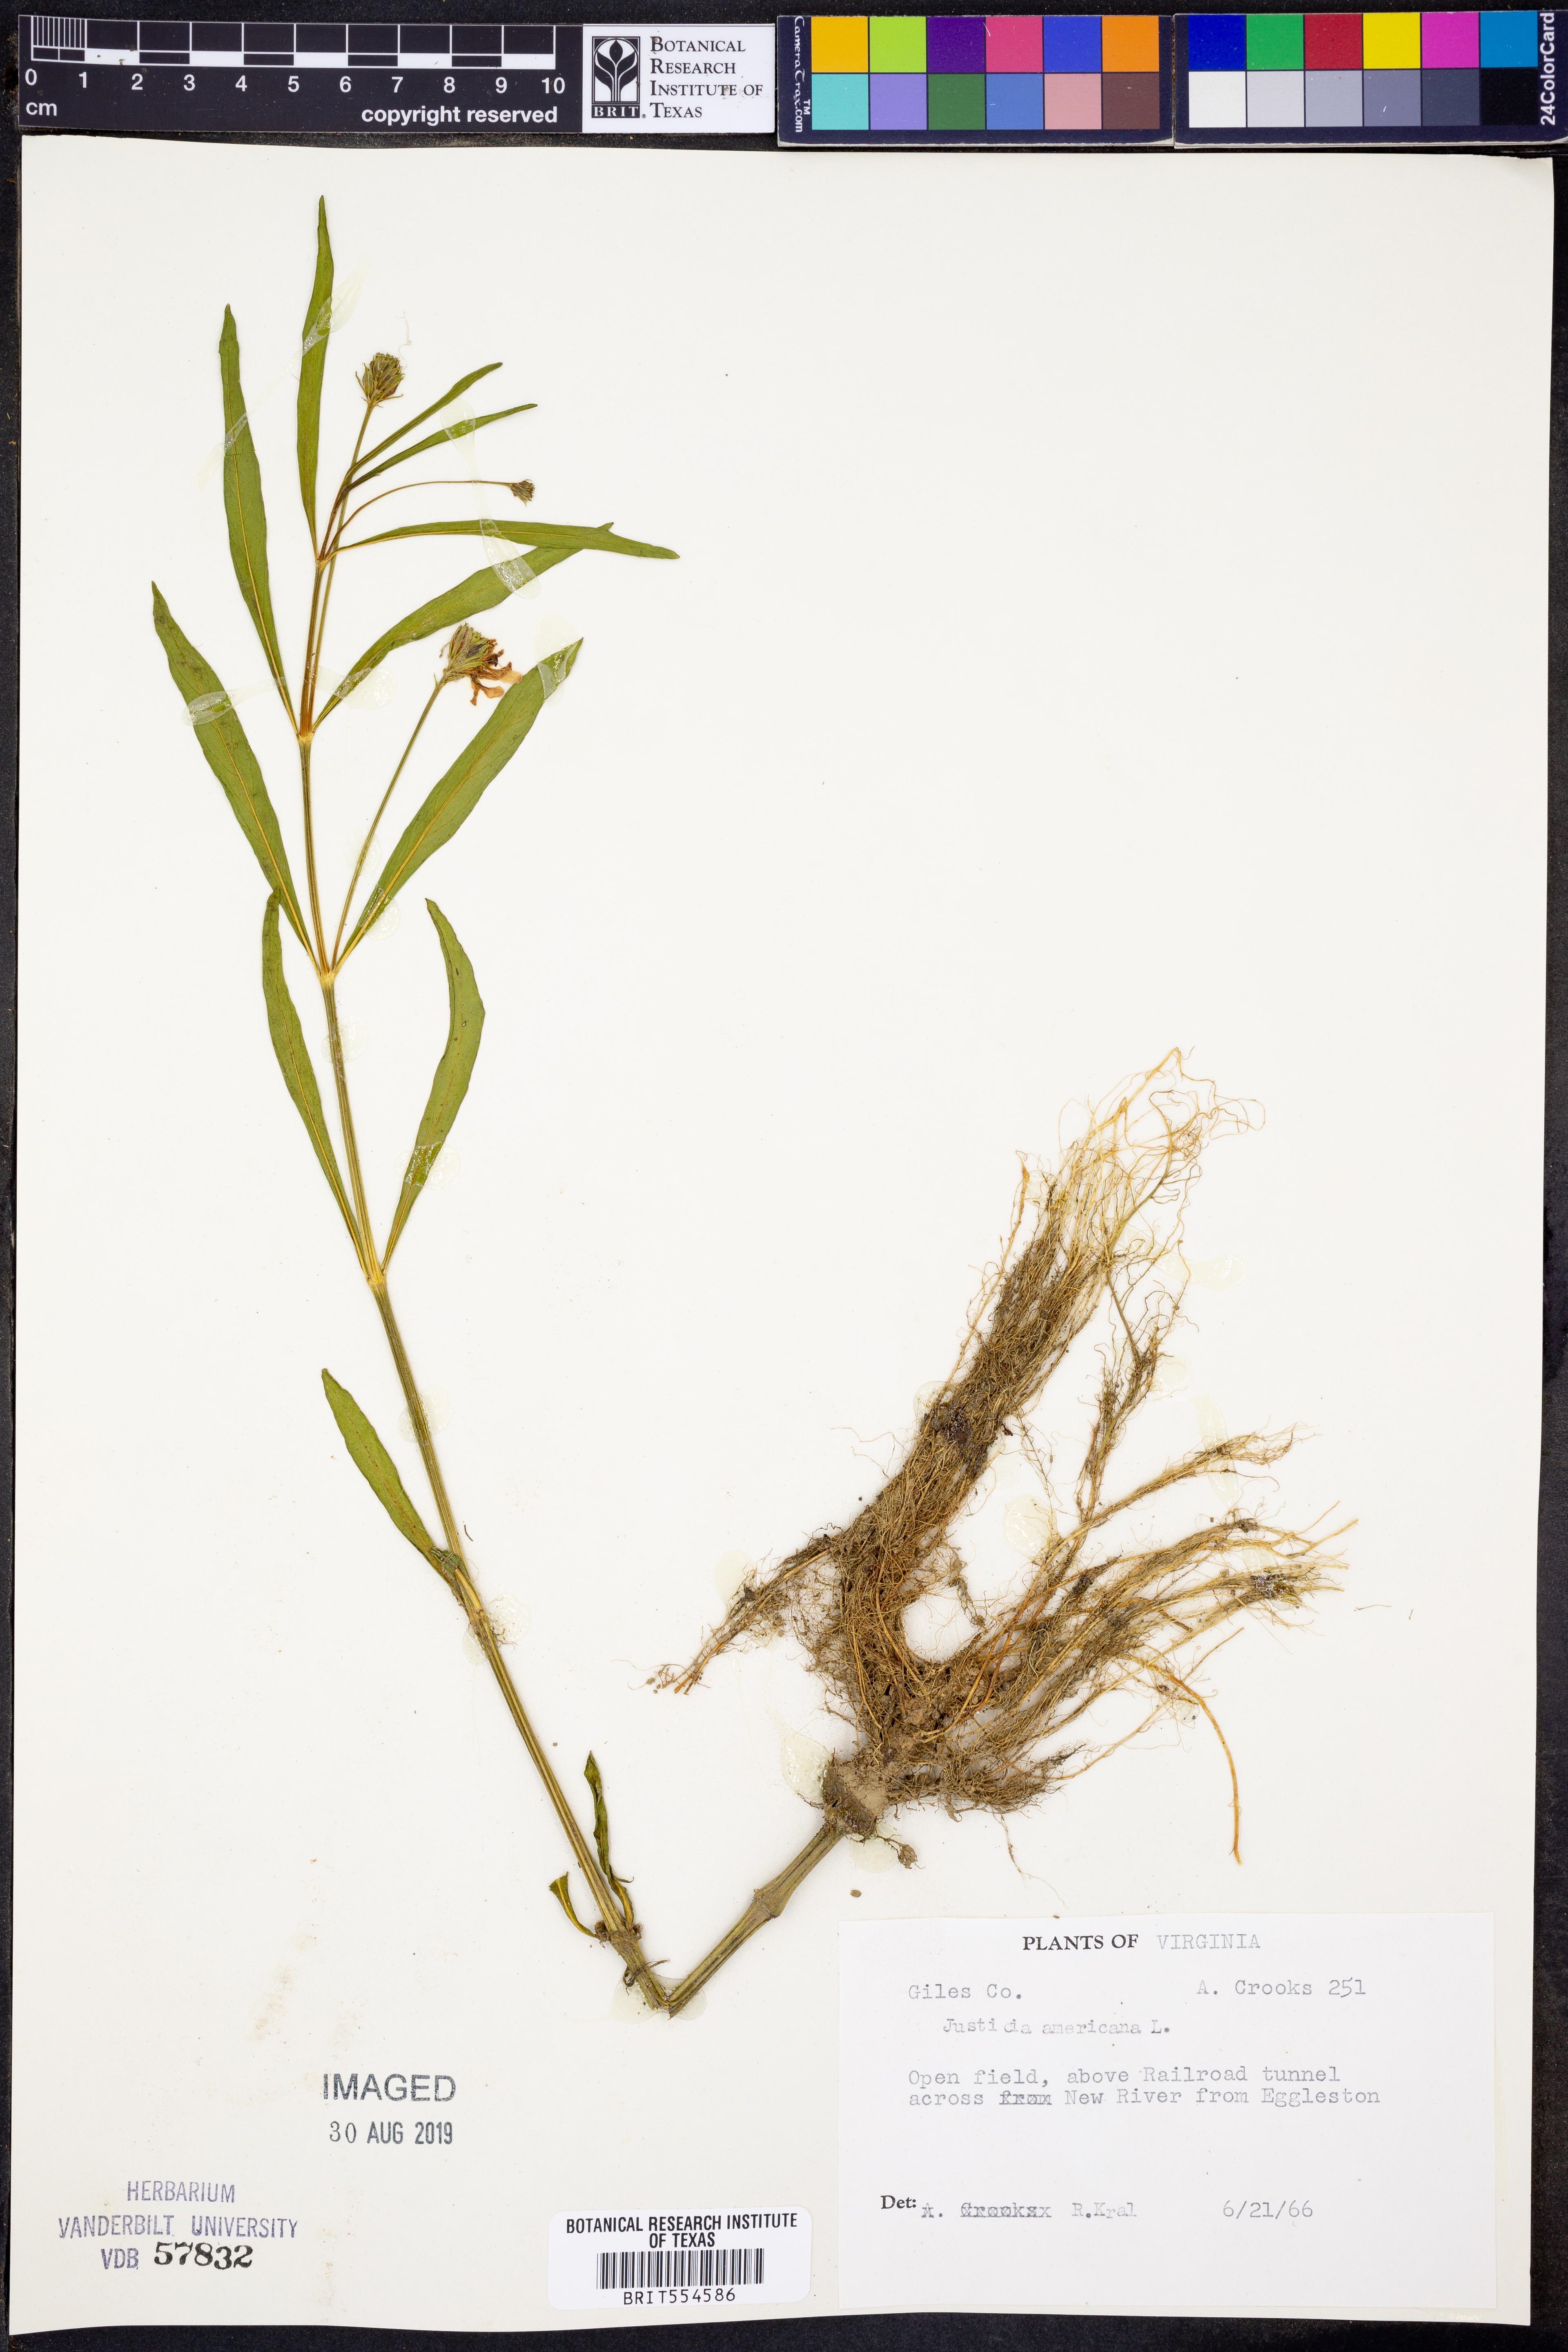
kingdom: Plantae
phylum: Tracheophyta
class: Magnoliopsida
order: Lamiales
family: Acanthaceae
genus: Dianthera
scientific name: Dianthera americana
